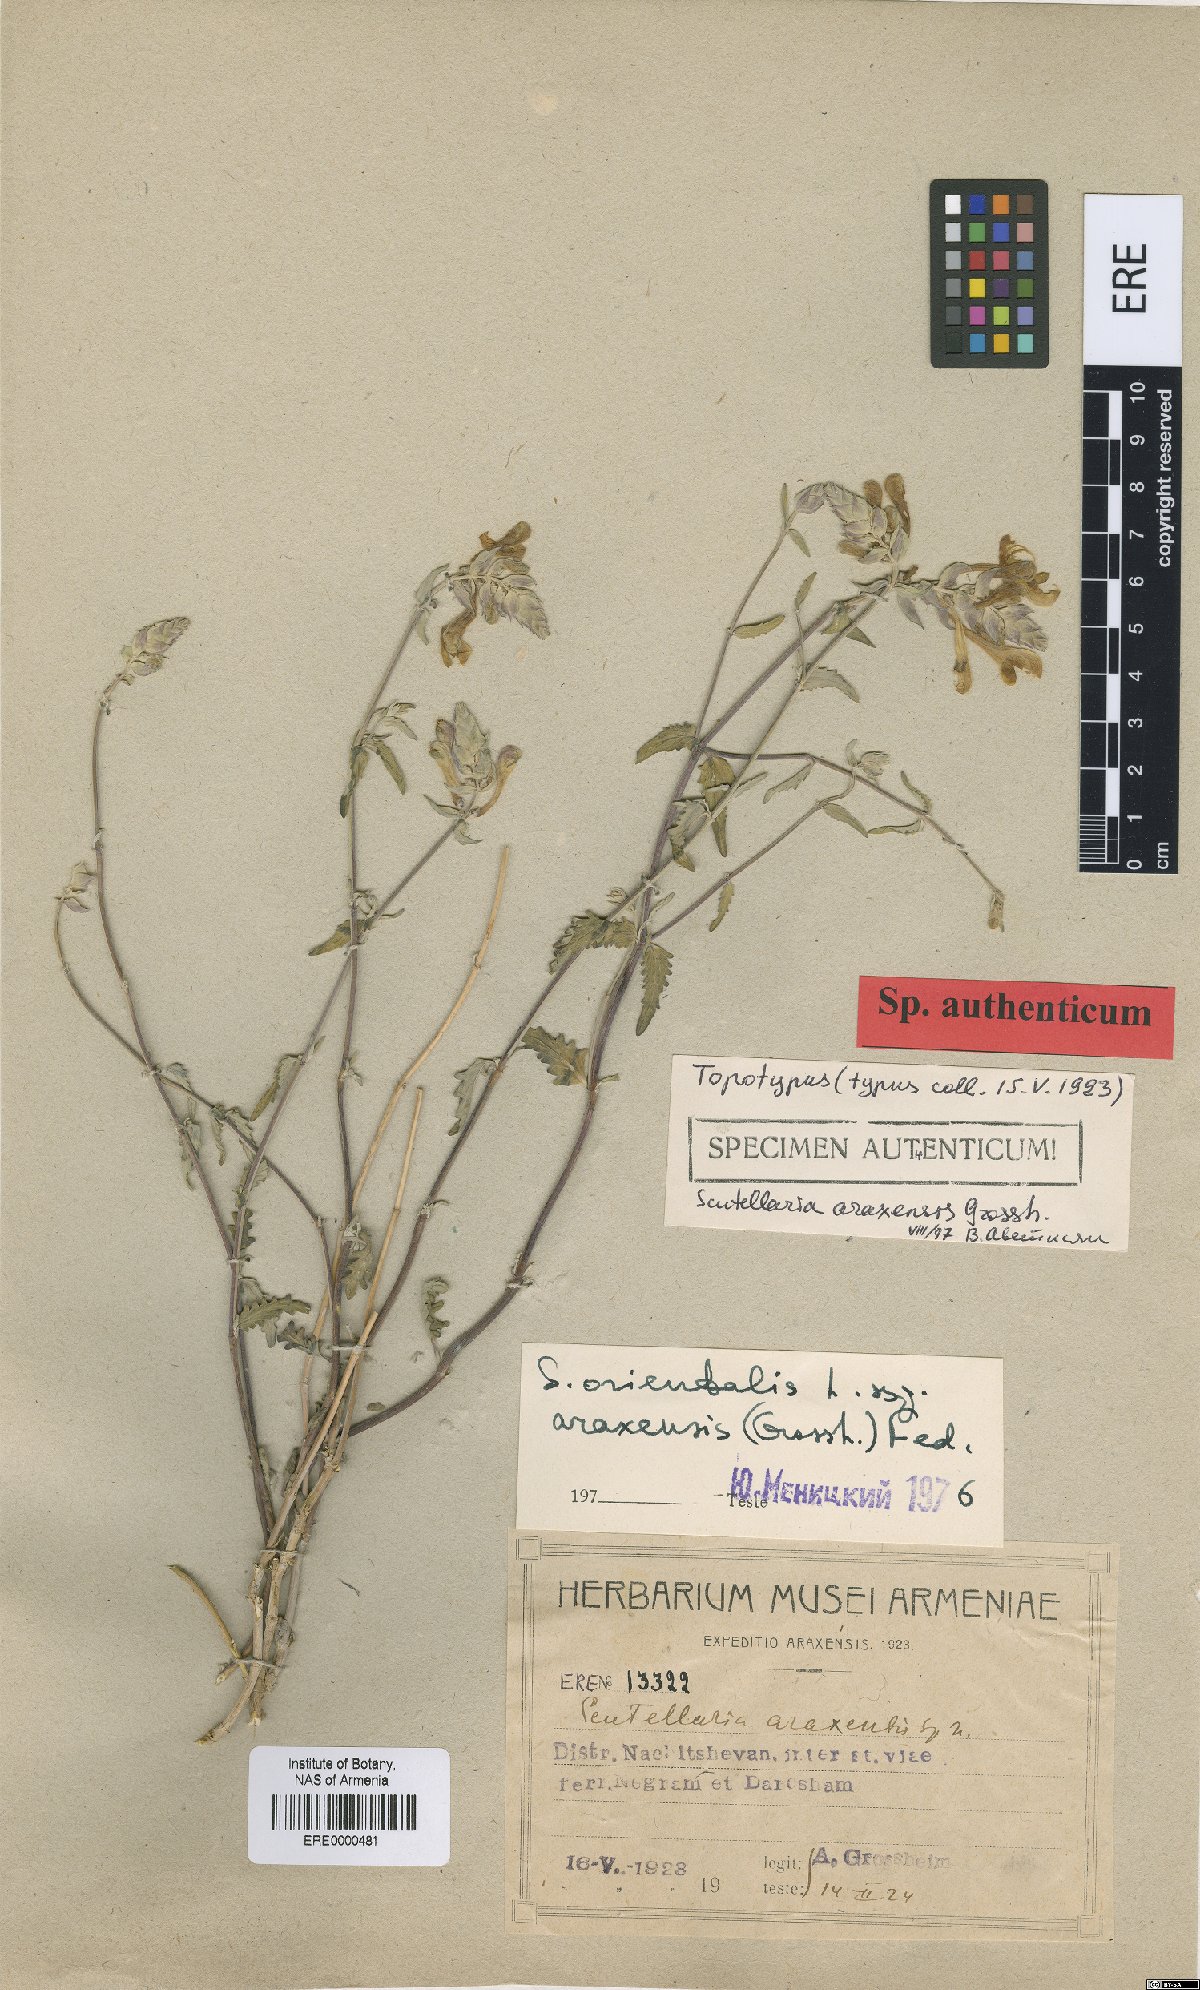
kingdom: Plantae
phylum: Tracheophyta
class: Magnoliopsida
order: Lamiales
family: Lamiaceae
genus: Scutellaria
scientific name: Scutellaria araxensis
